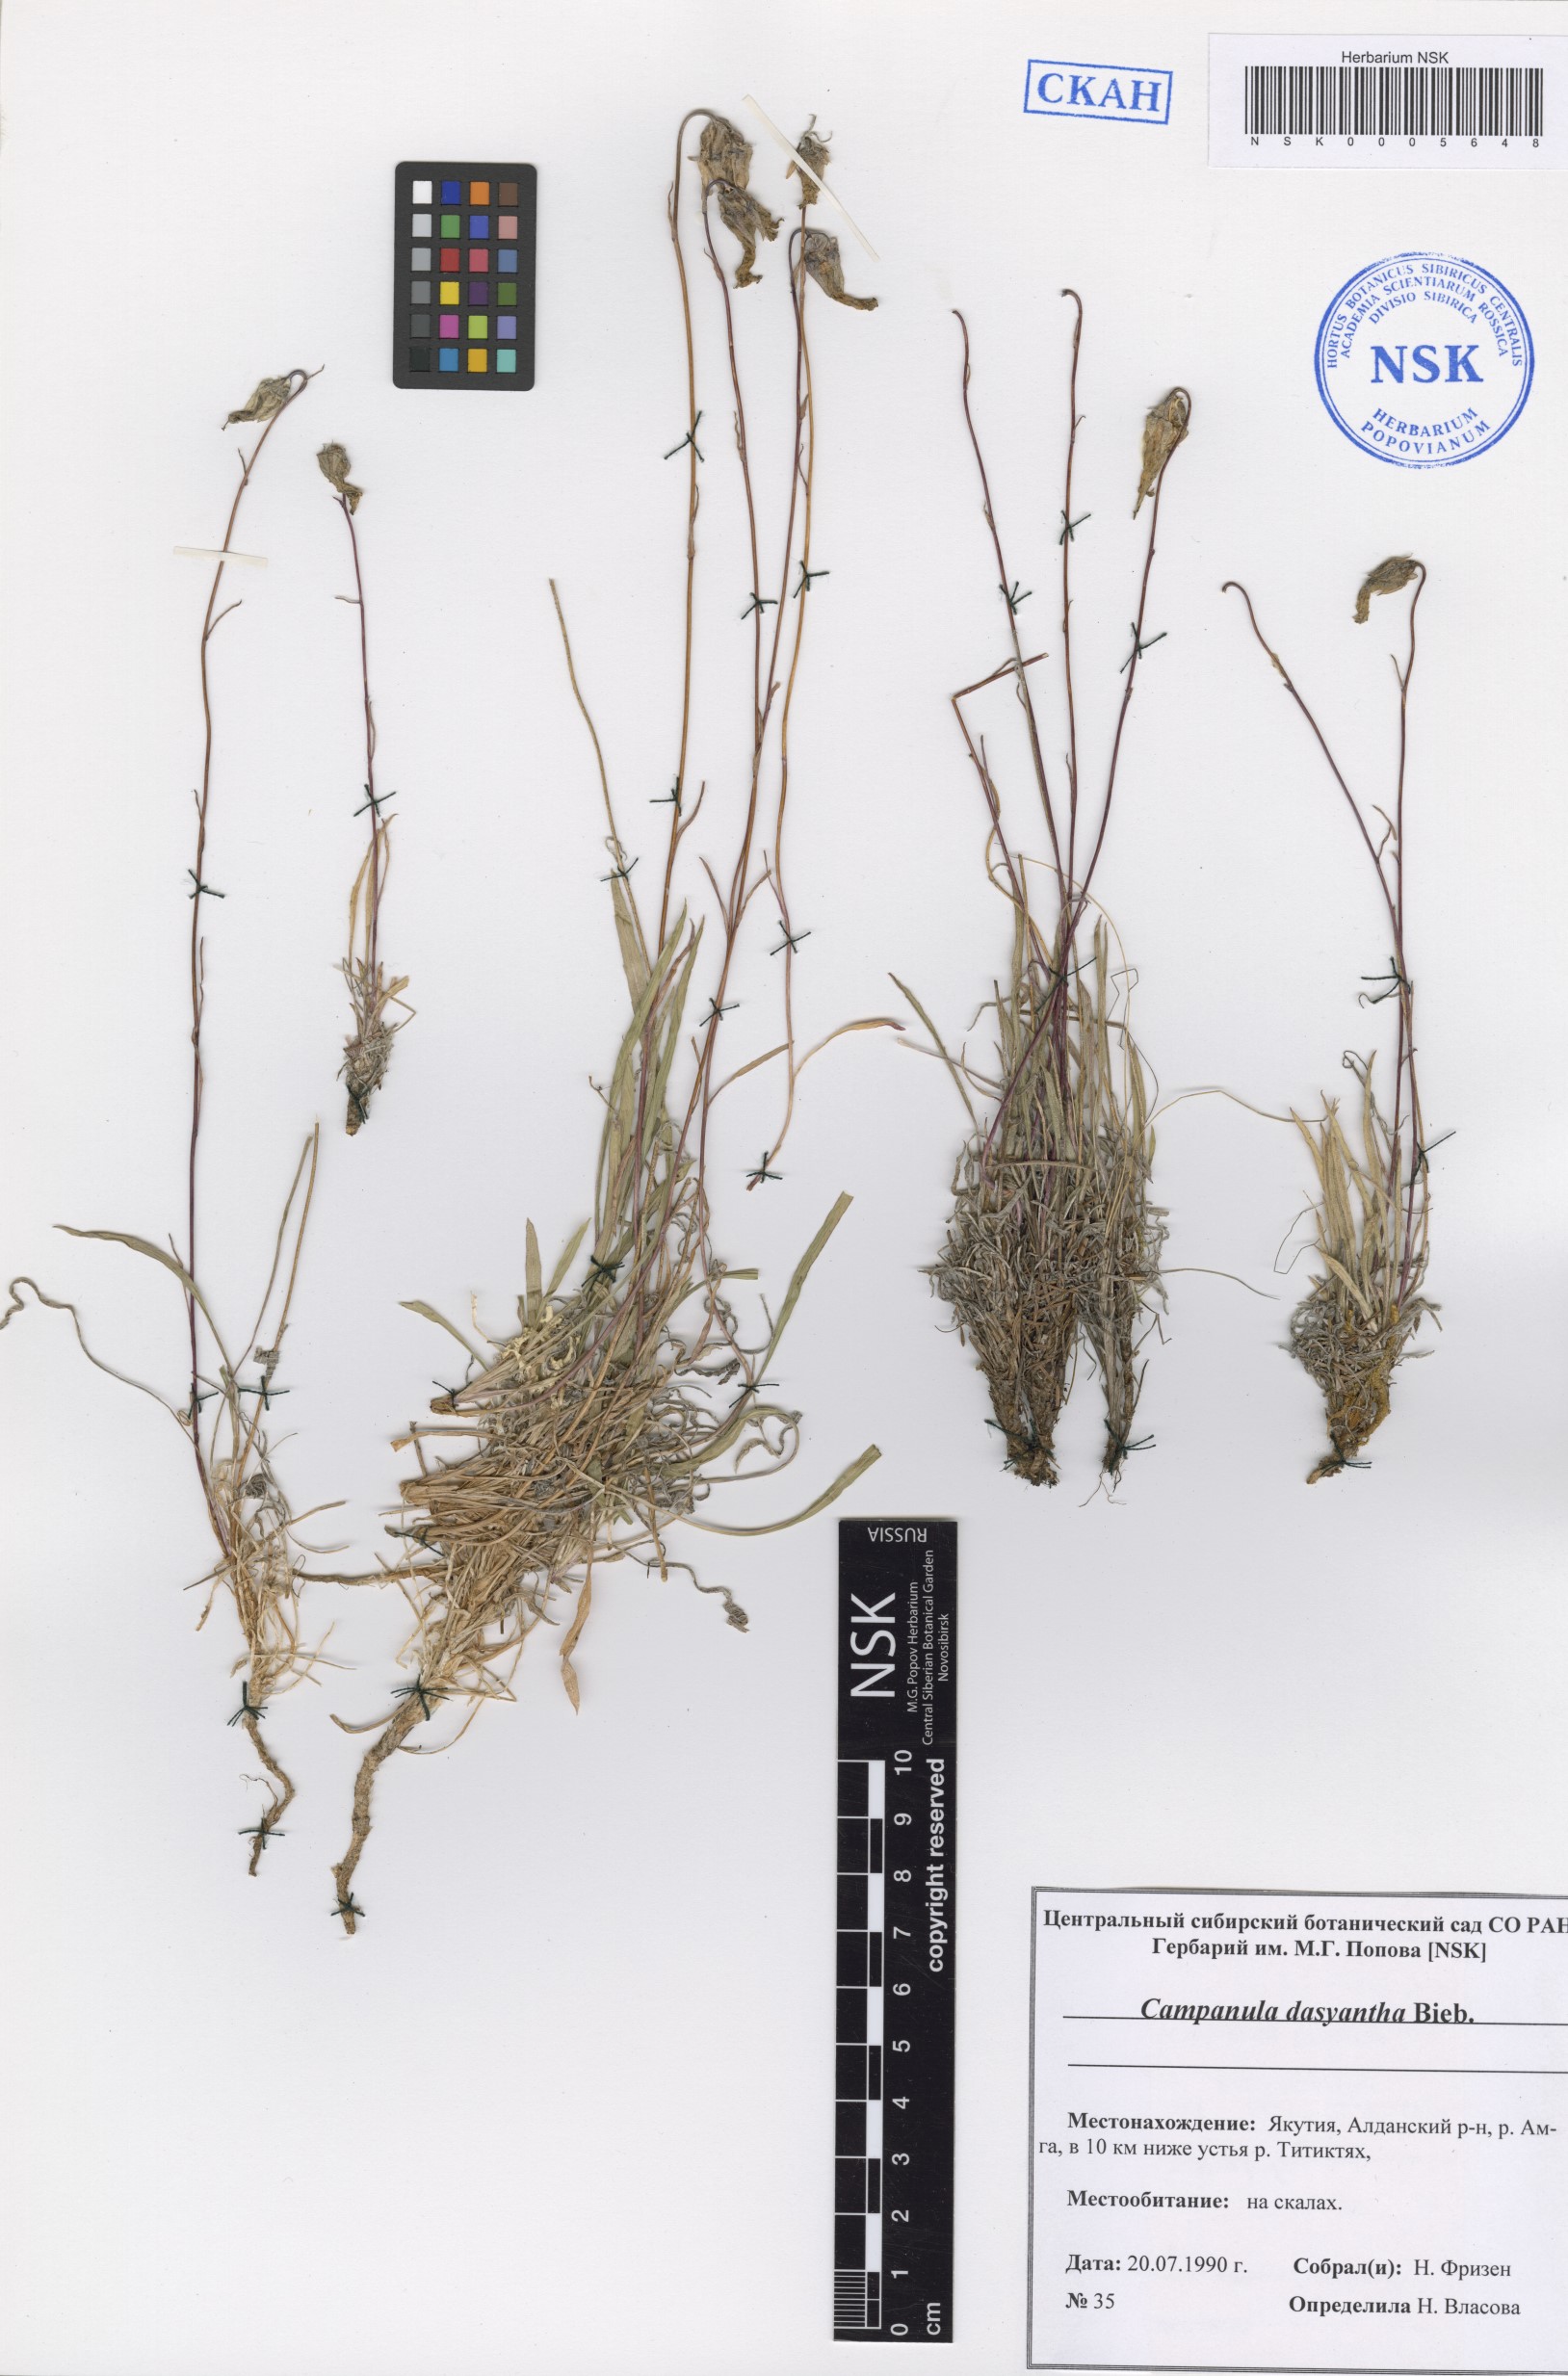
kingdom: Plantae
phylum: Tracheophyta
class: Magnoliopsida
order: Asterales
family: Campanulaceae
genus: Campanula
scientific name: Campanula dasyantha
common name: Hairyflower bellflower
